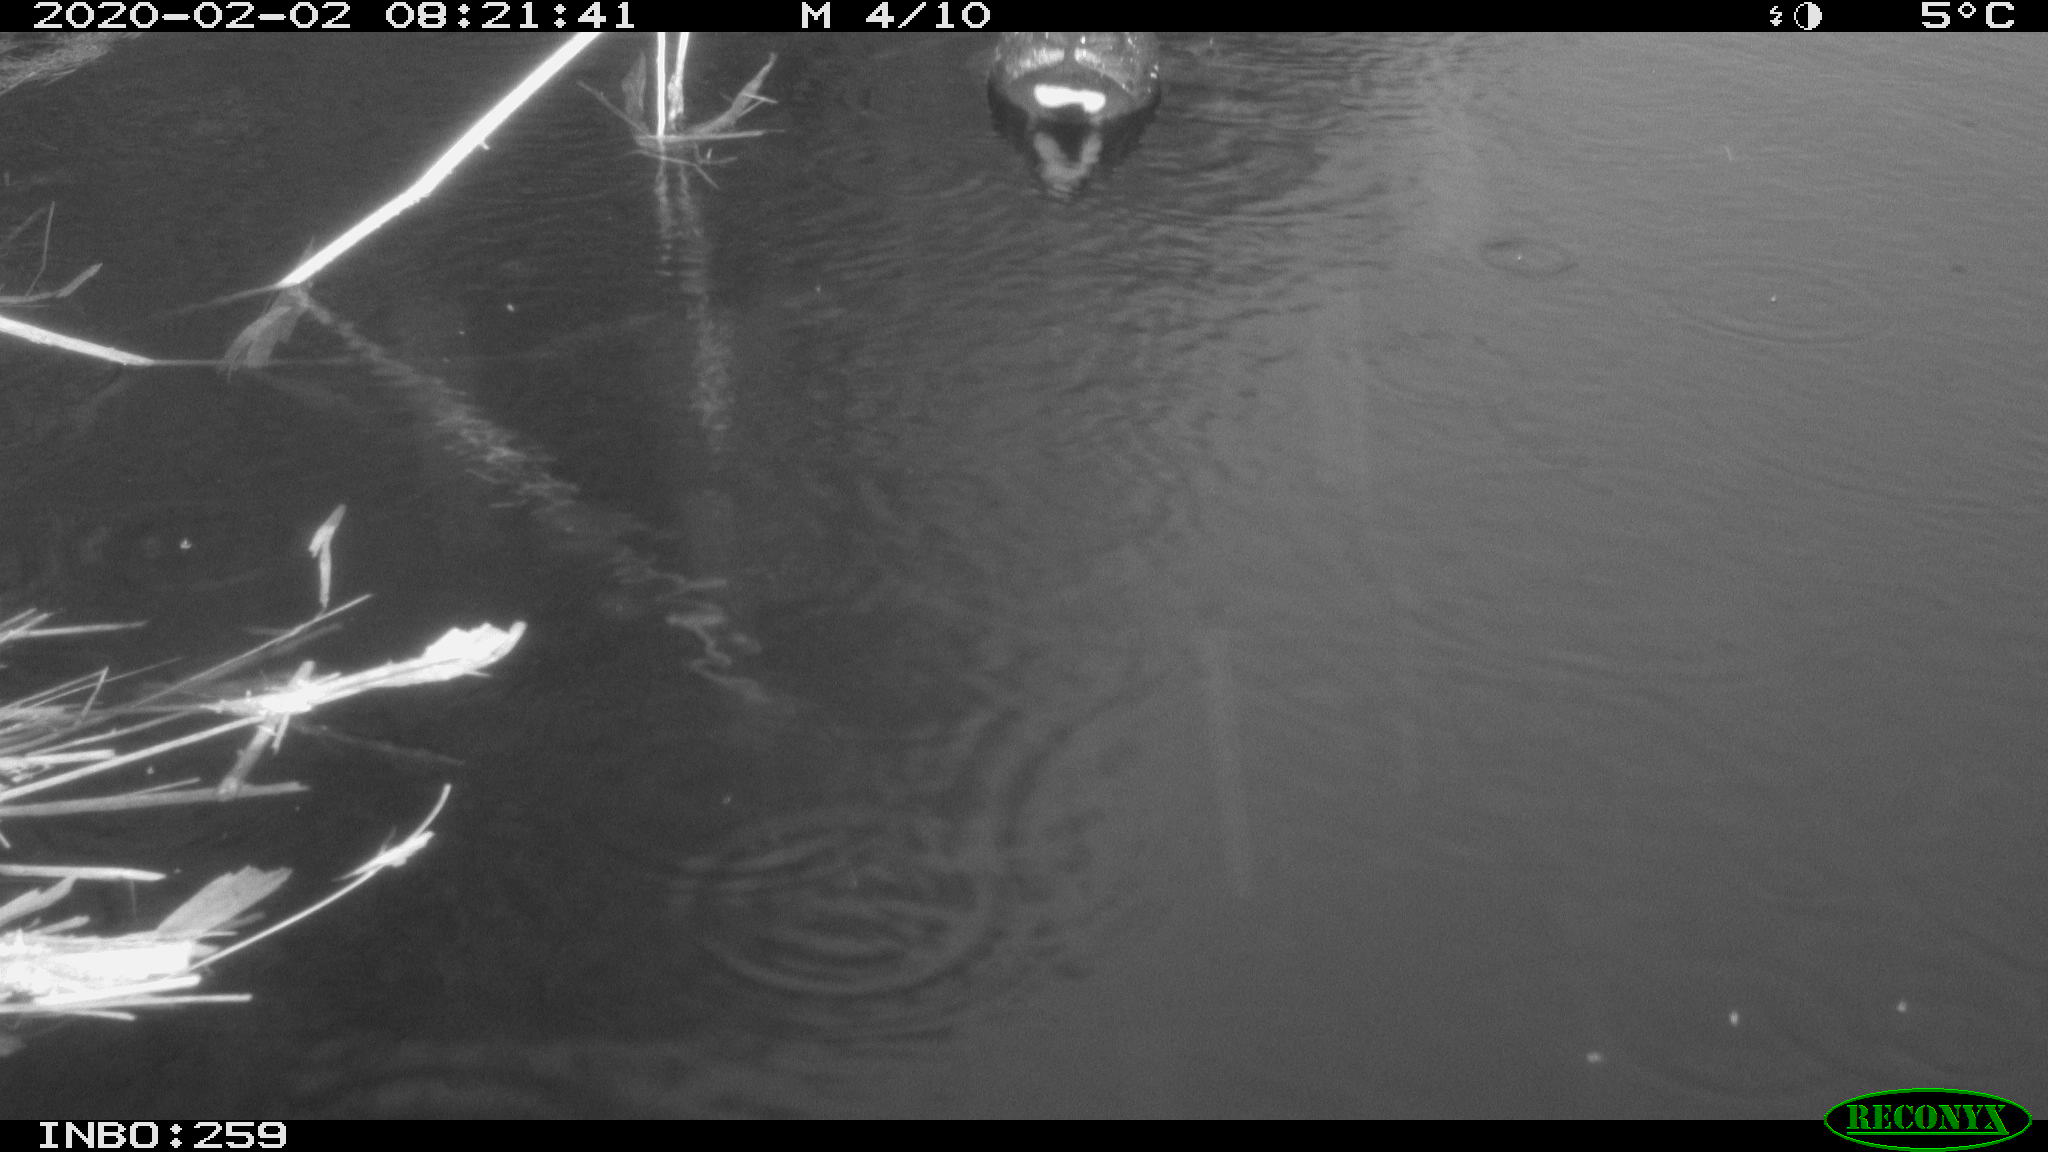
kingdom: Animalia
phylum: Chordata
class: Aves
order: Gruiformes
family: Rallidae
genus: Gallinula
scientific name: Gallinula chloropus
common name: Common moorhen
